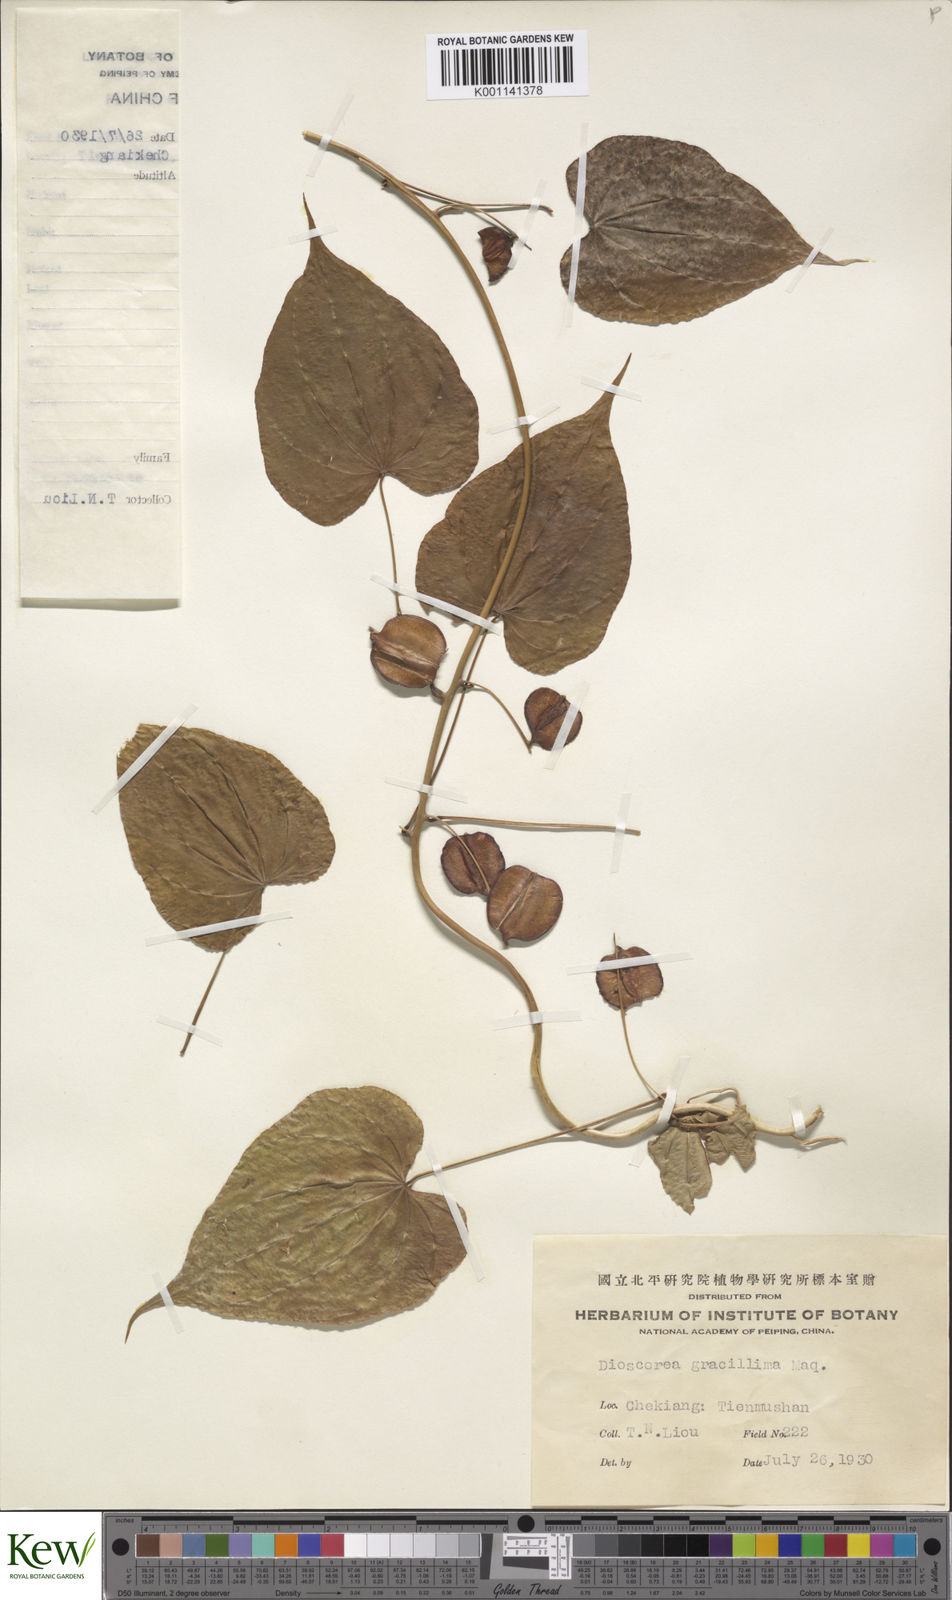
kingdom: Plantae
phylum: Tracheophyta
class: Liliopsida
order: Dioscoreales
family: Dioscoreaceae
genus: Dioscorea
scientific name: Dioscorea gracillima
